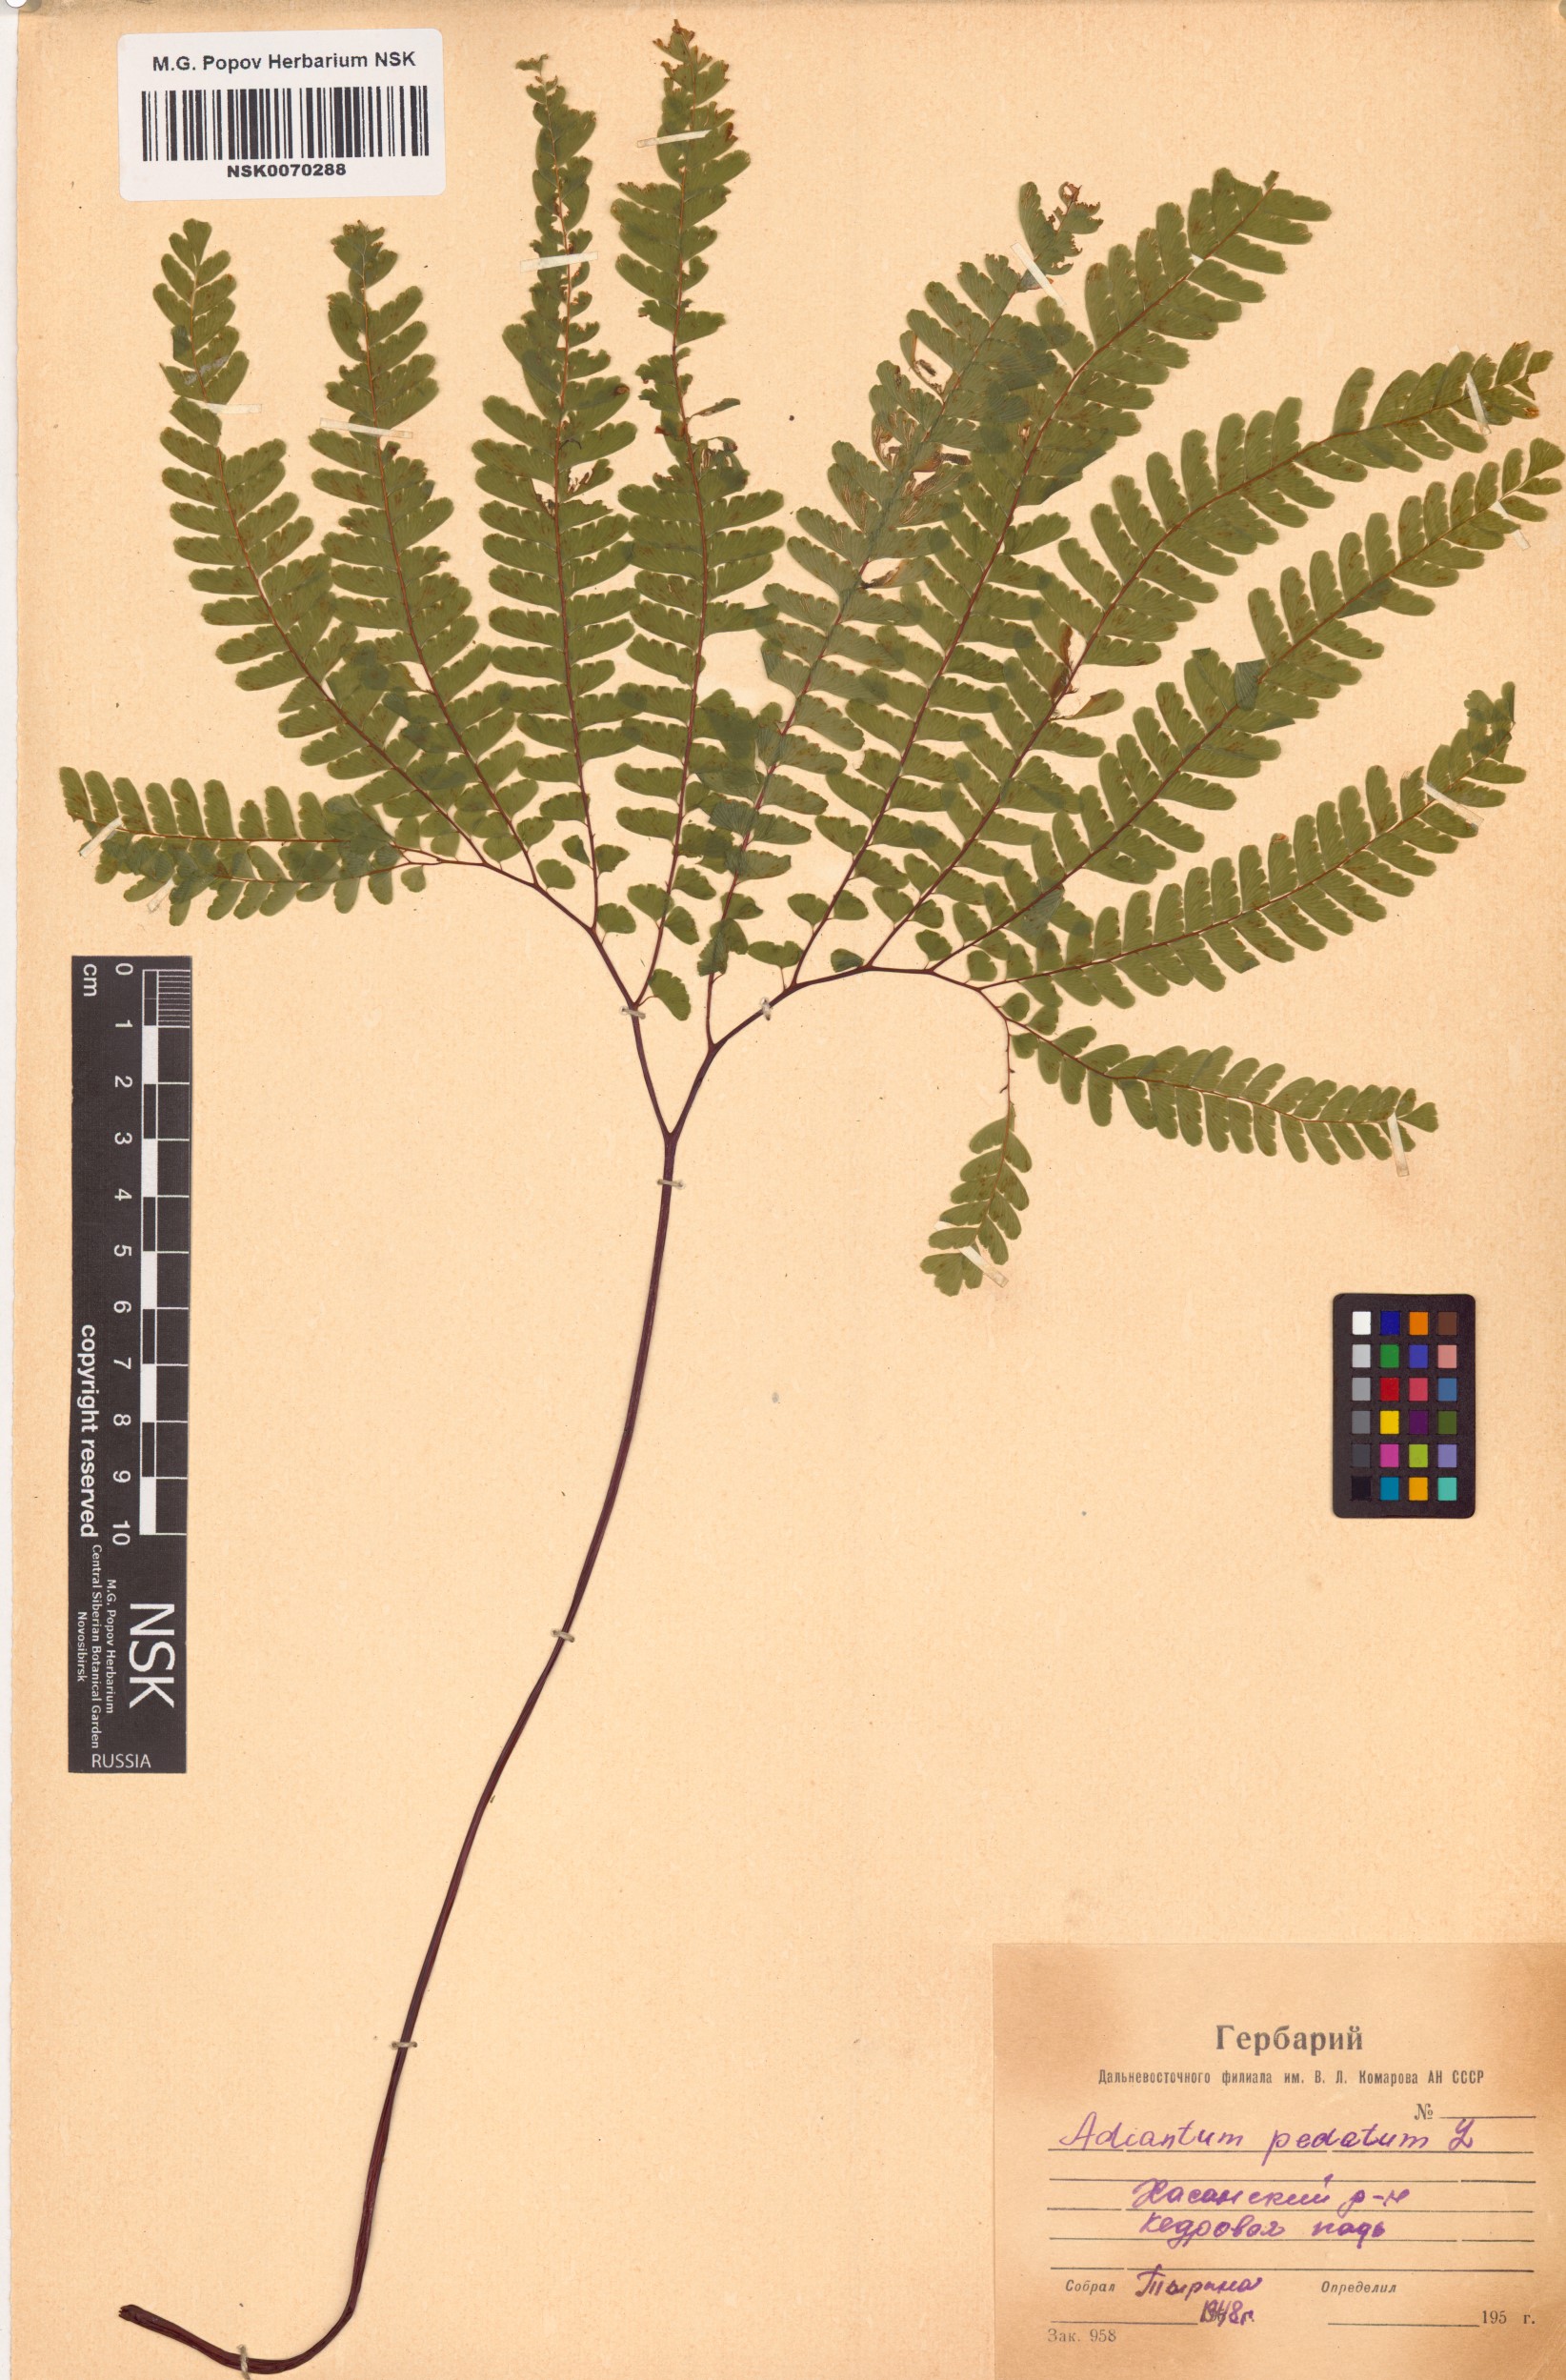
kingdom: Plantae
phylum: Tracheophyta
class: Polypodiopsida
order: Polypodiales
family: Pteridaceae
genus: Adiantum
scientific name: Adiantum pedatum
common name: Five-finger fern
